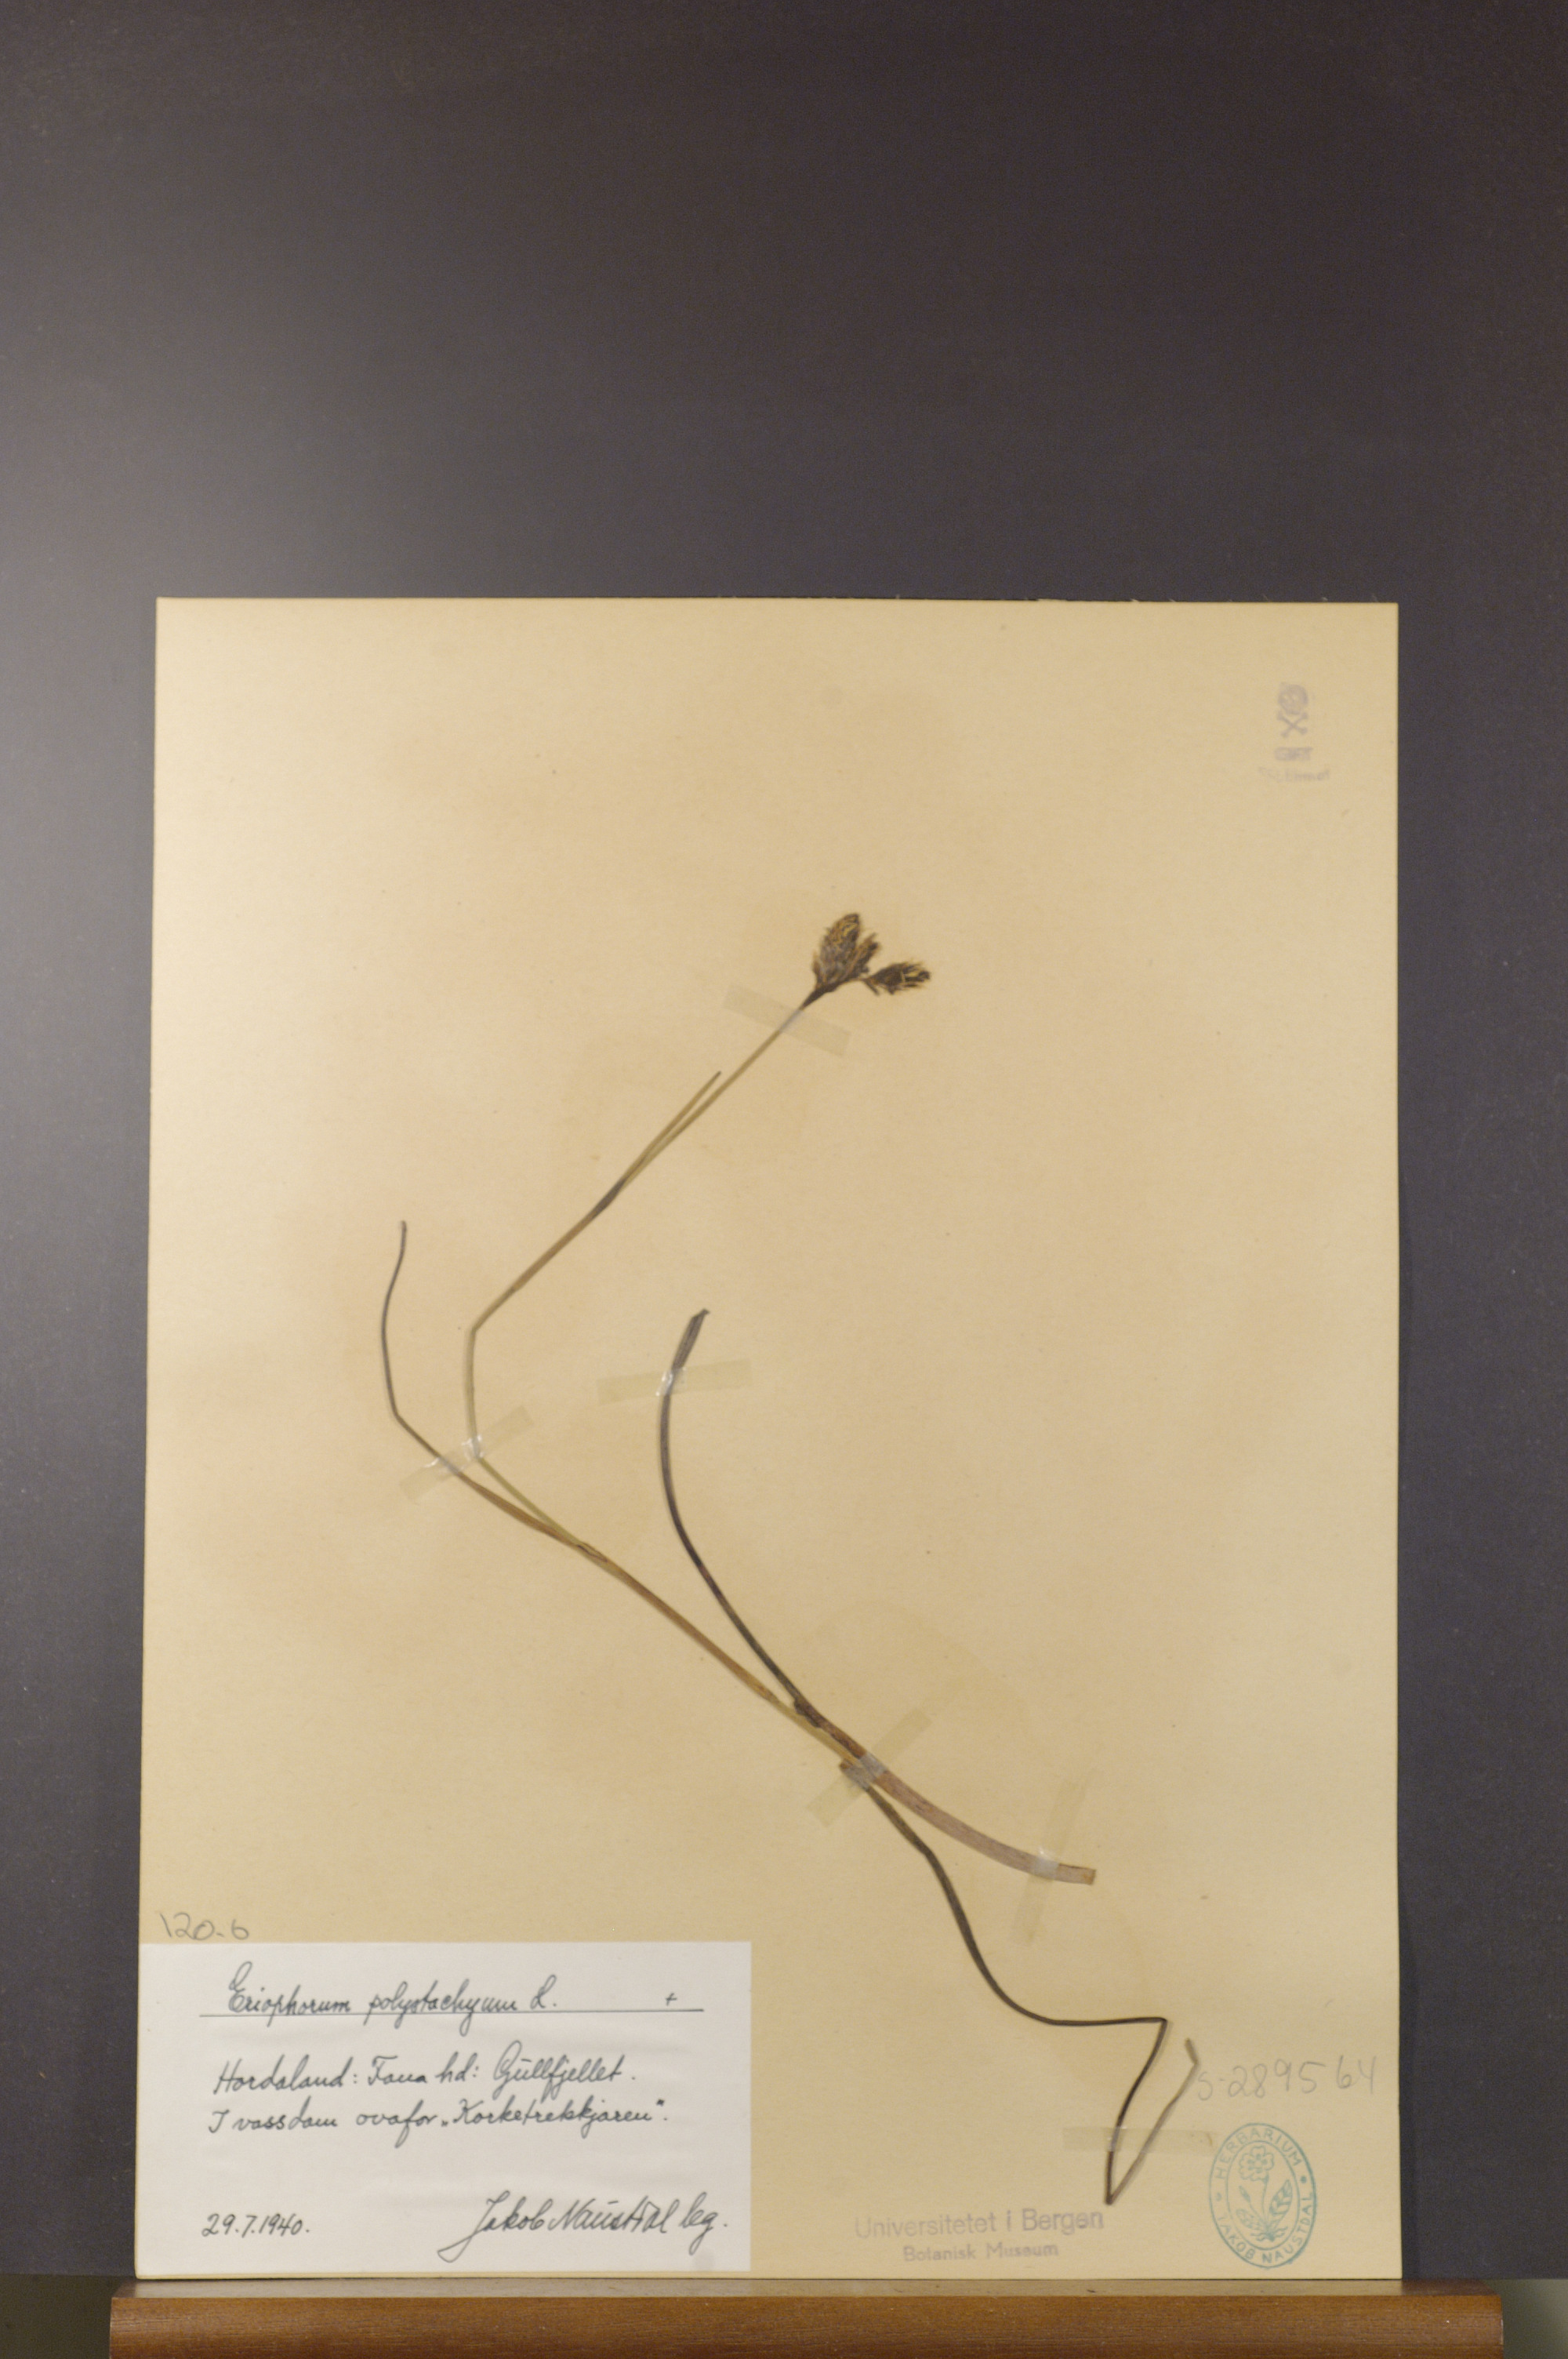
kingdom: Plantae
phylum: Tracheophyta
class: Liliopsida
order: Poales
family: Cyperaceae
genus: Eriophorum
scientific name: Eriophorum angustifolium
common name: Common cottongrass
